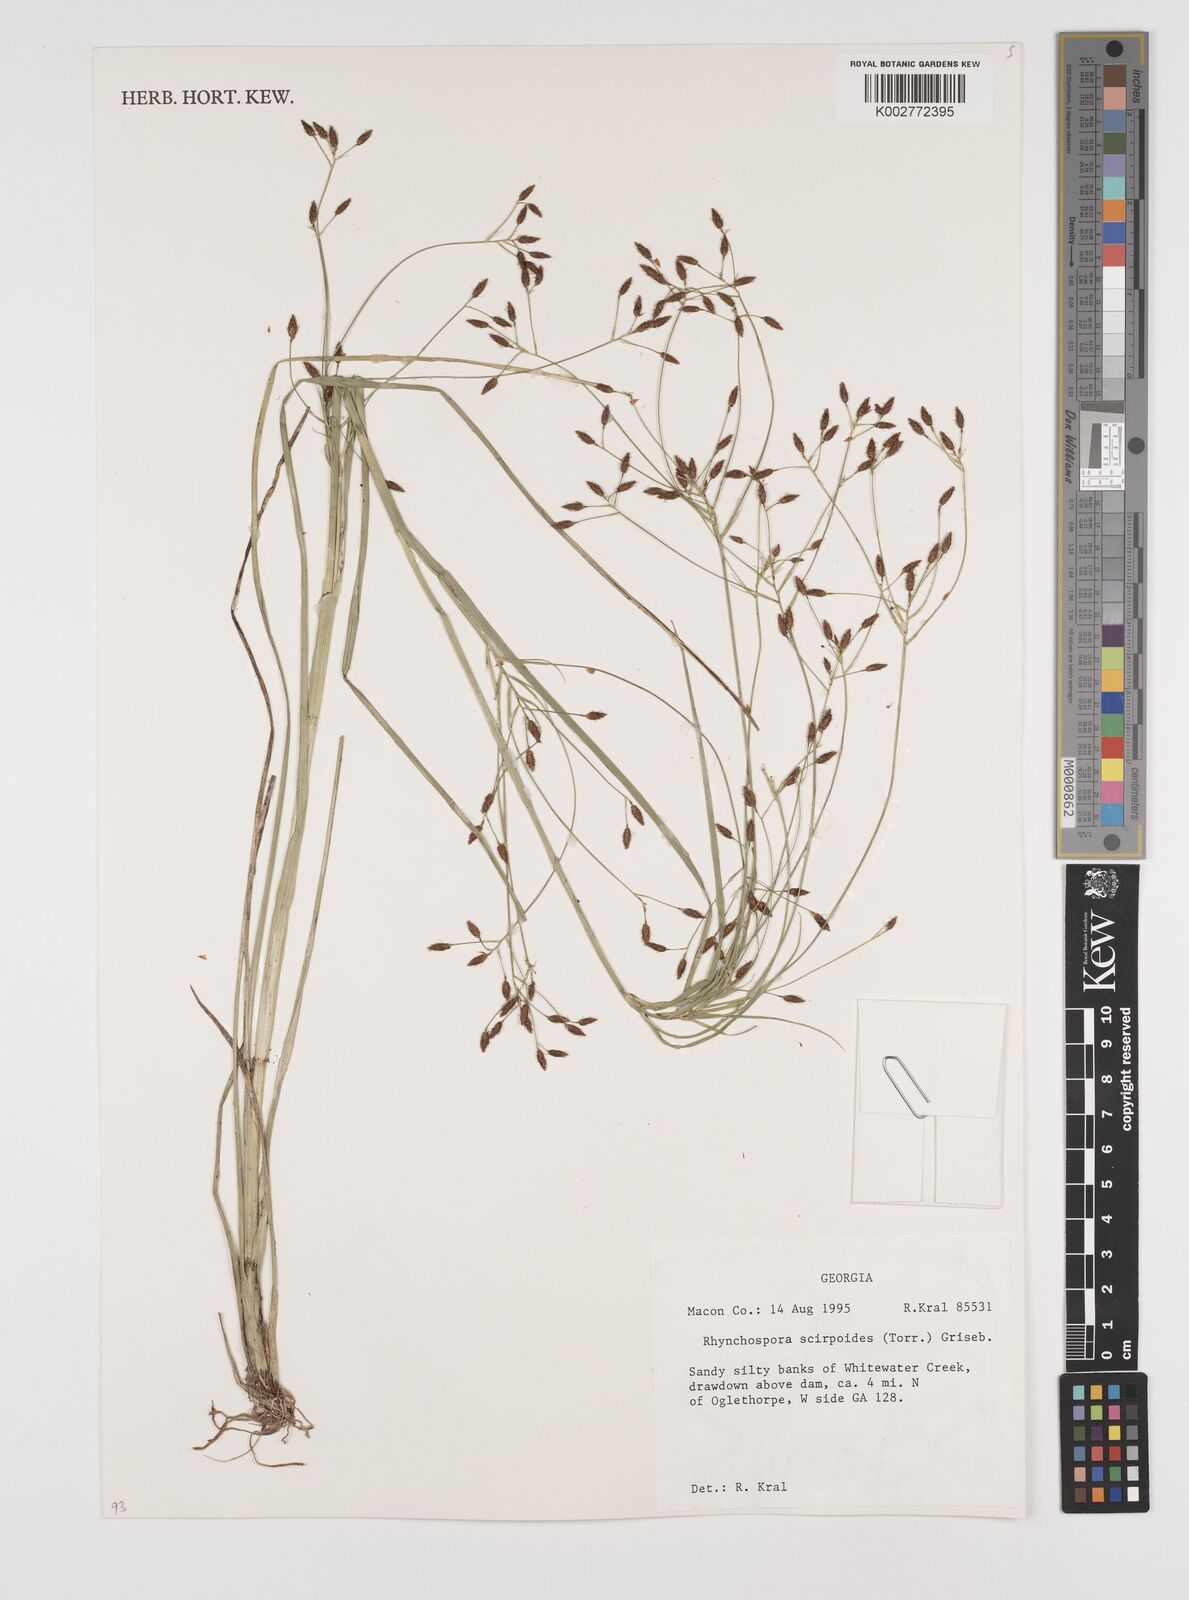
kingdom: Plantae
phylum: Tracheophyta
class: Liliopsida
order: Poales
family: Cyperaceae
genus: Rhynchospora
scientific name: Rhynchospora scirpoides
